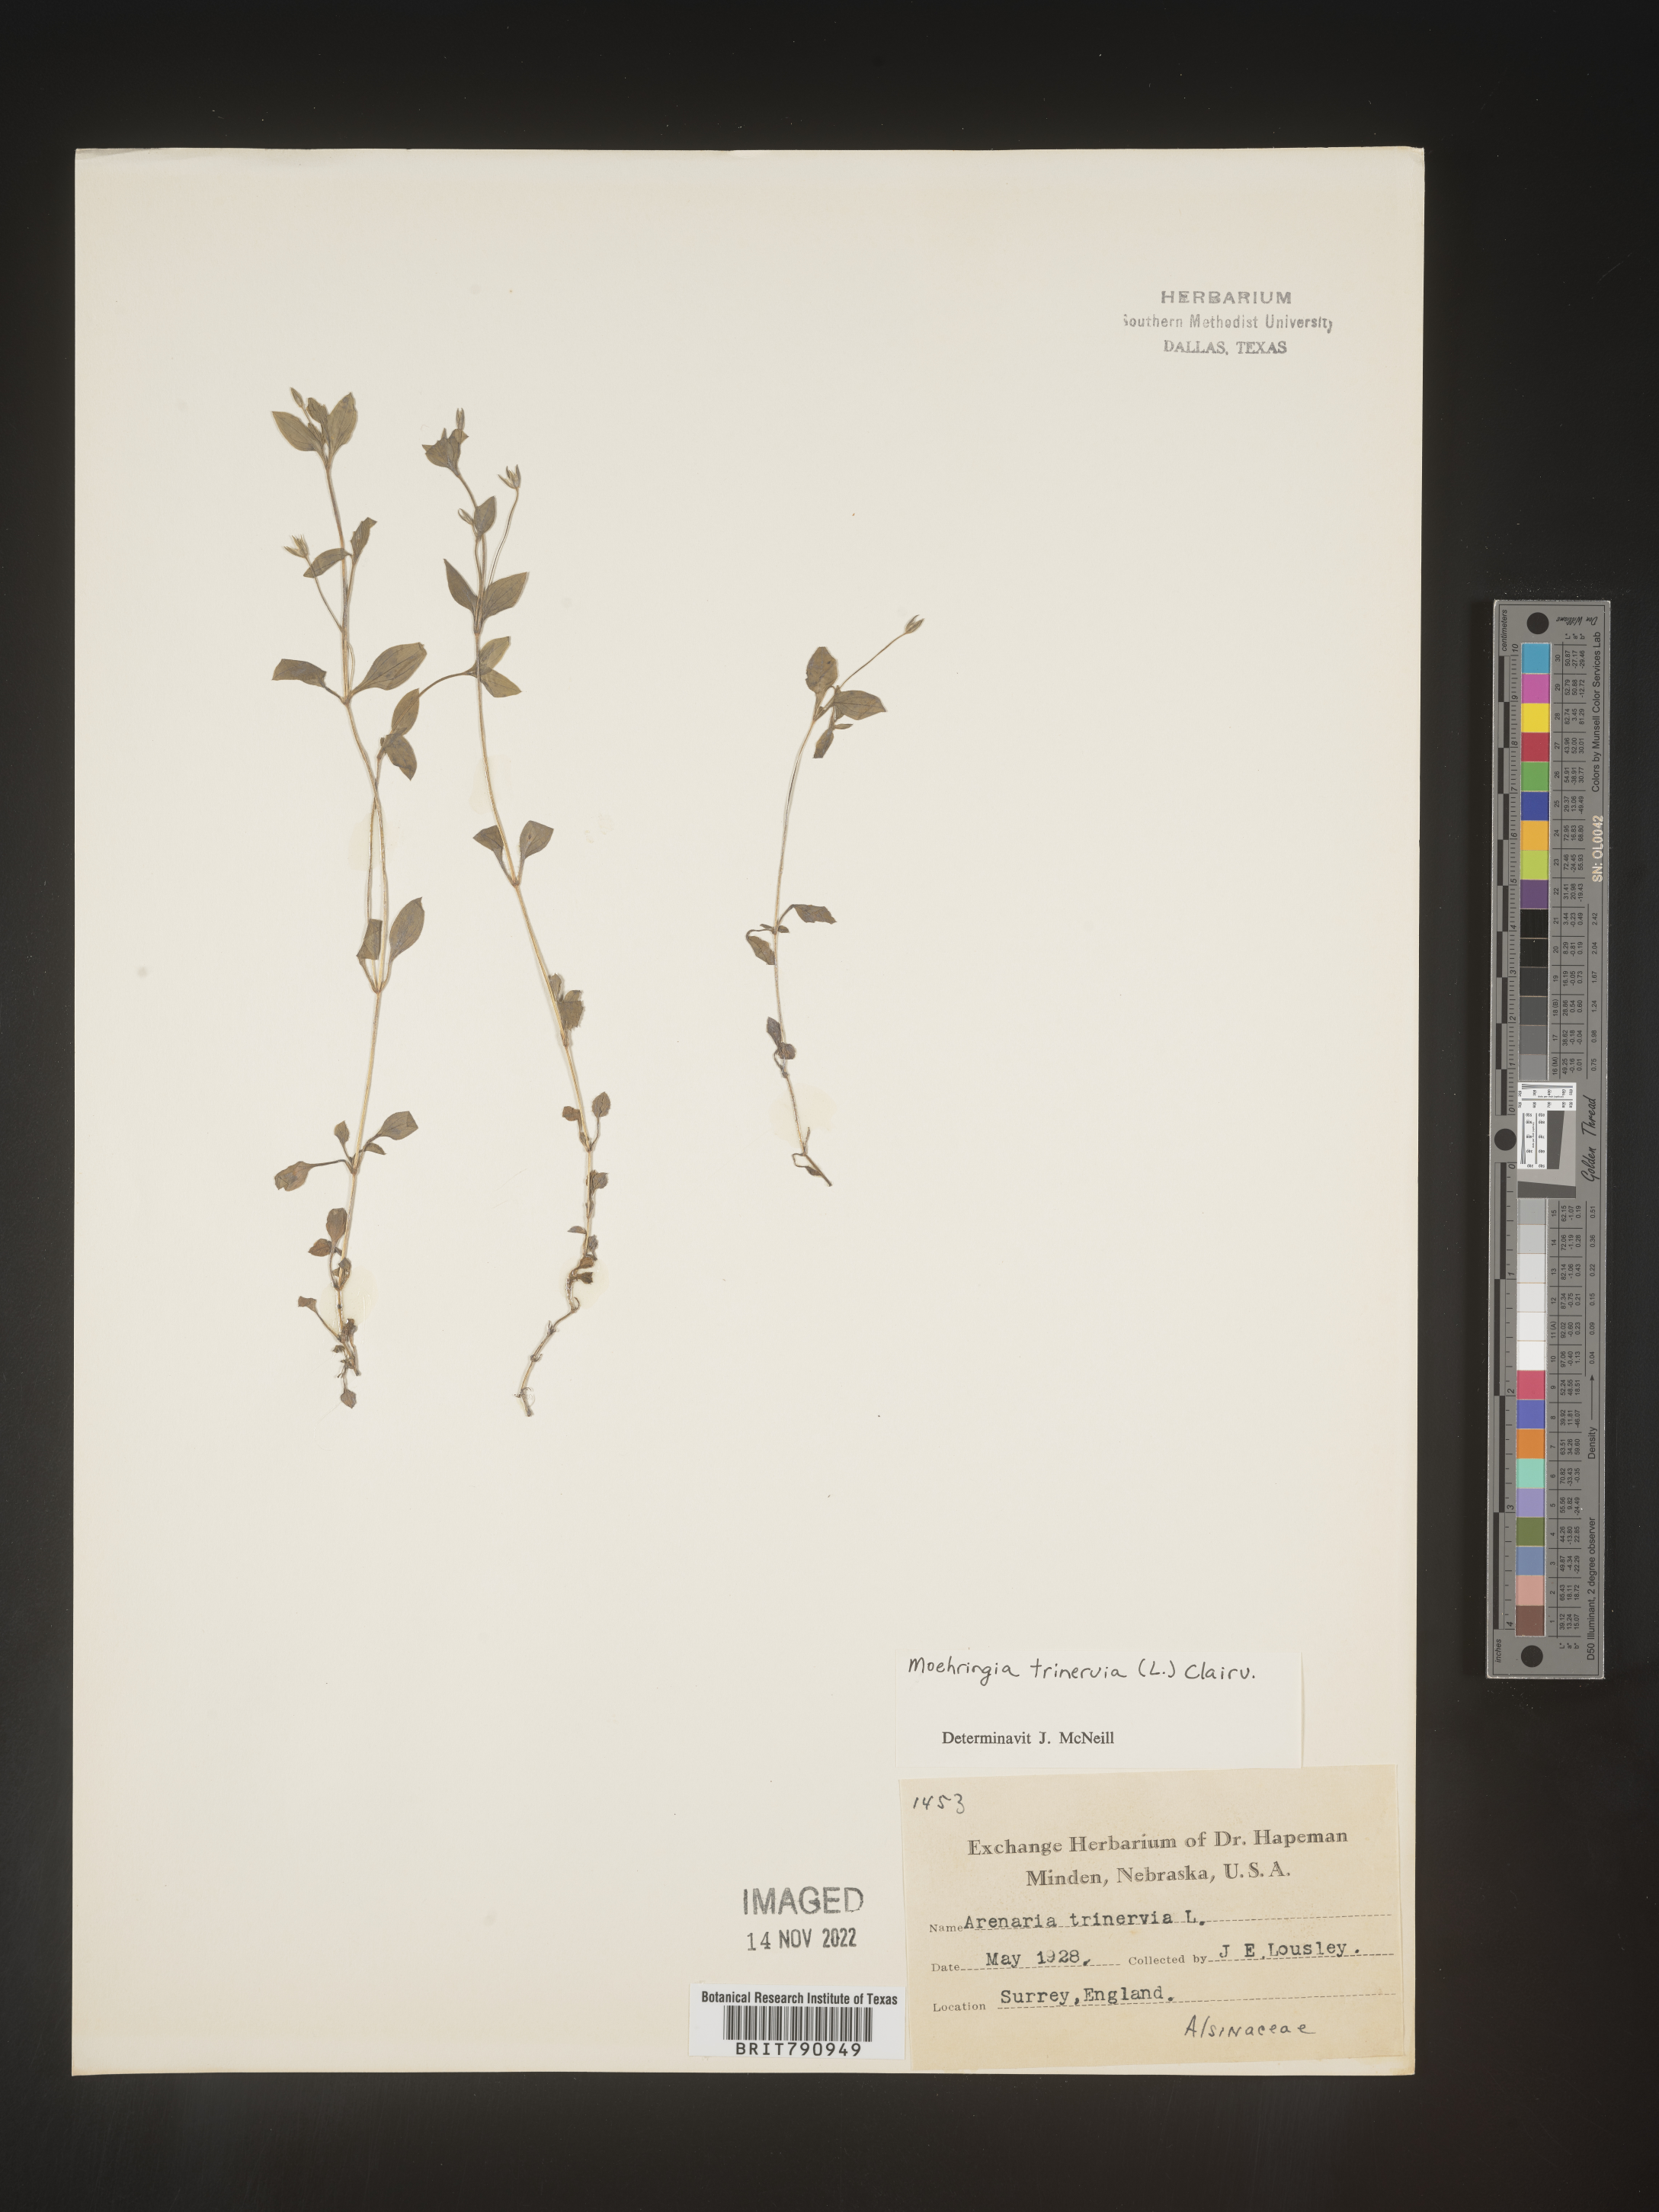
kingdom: Plantae
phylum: Tracheophyta
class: Magnoliopsida
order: Caryophyllales
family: Caryophyllaceae
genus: Moehringia
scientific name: Moehringia
